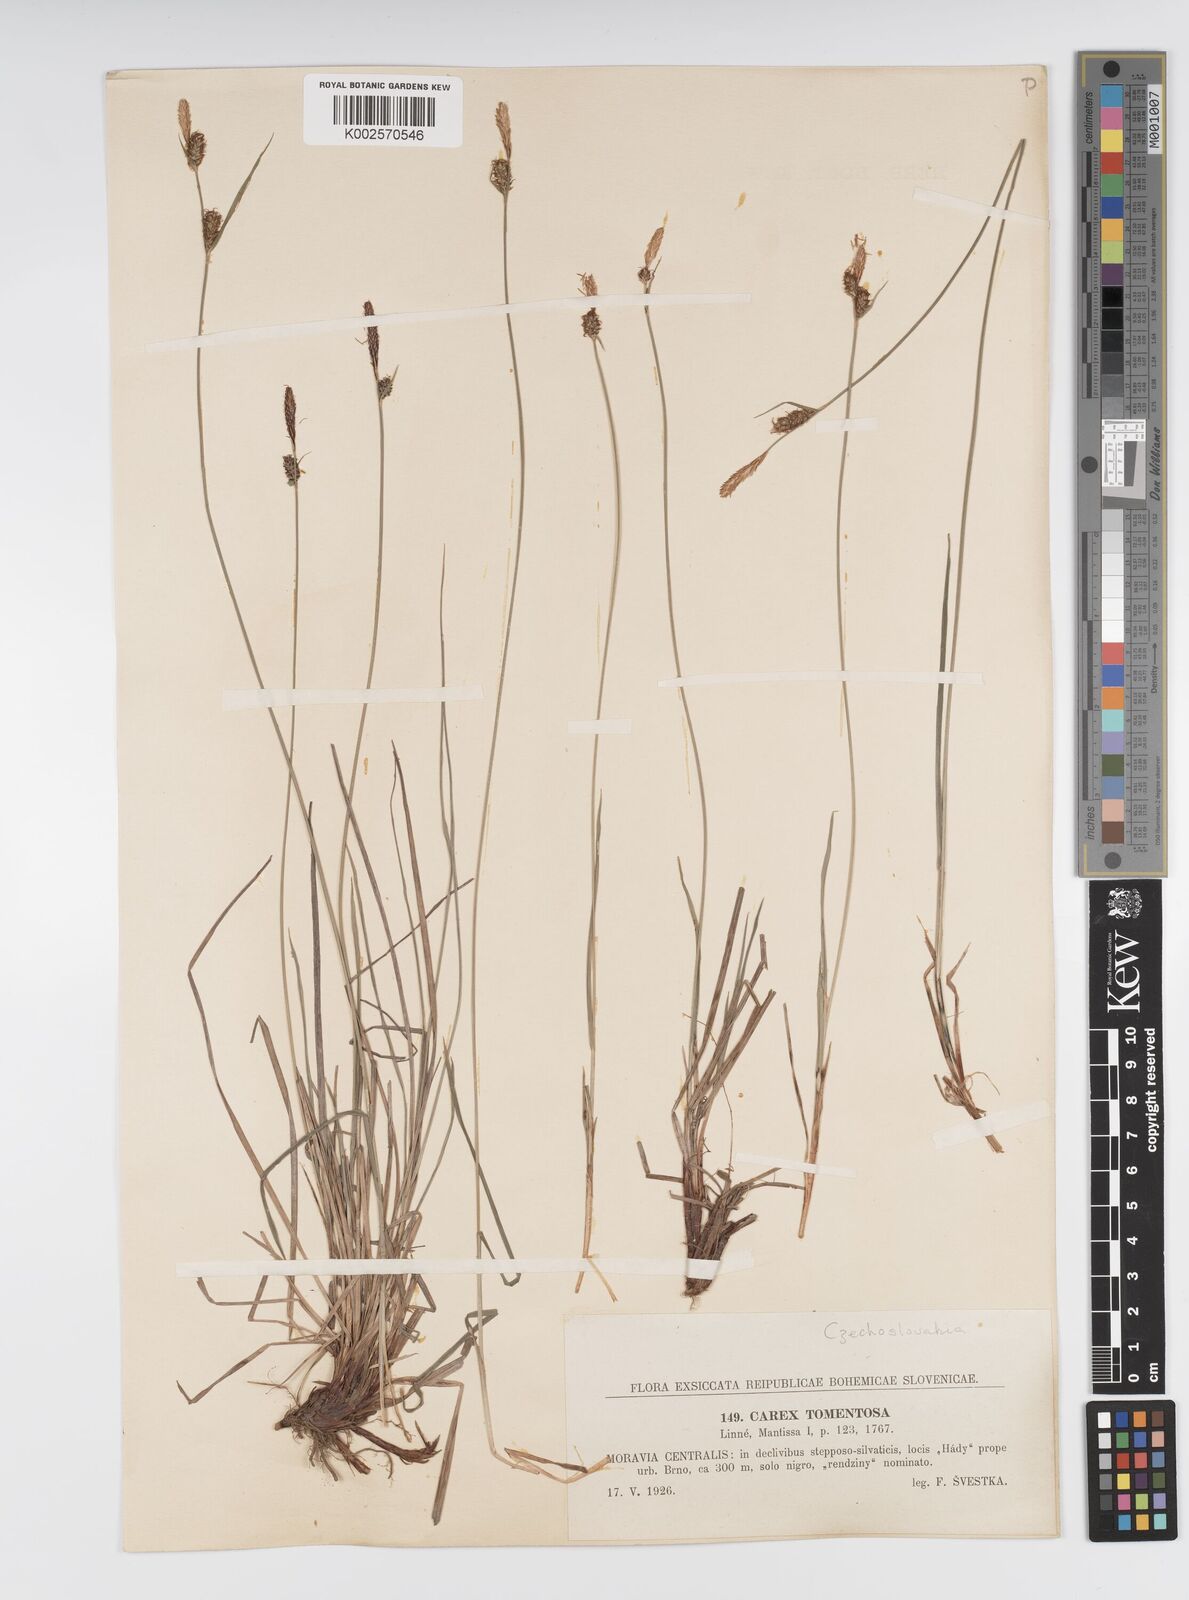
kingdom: Plantae
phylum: Tracheophyta
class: Liliopsida
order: Poales
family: Cyperaceae
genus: Carex
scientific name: Carex montana
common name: Soft-leaved sedge
